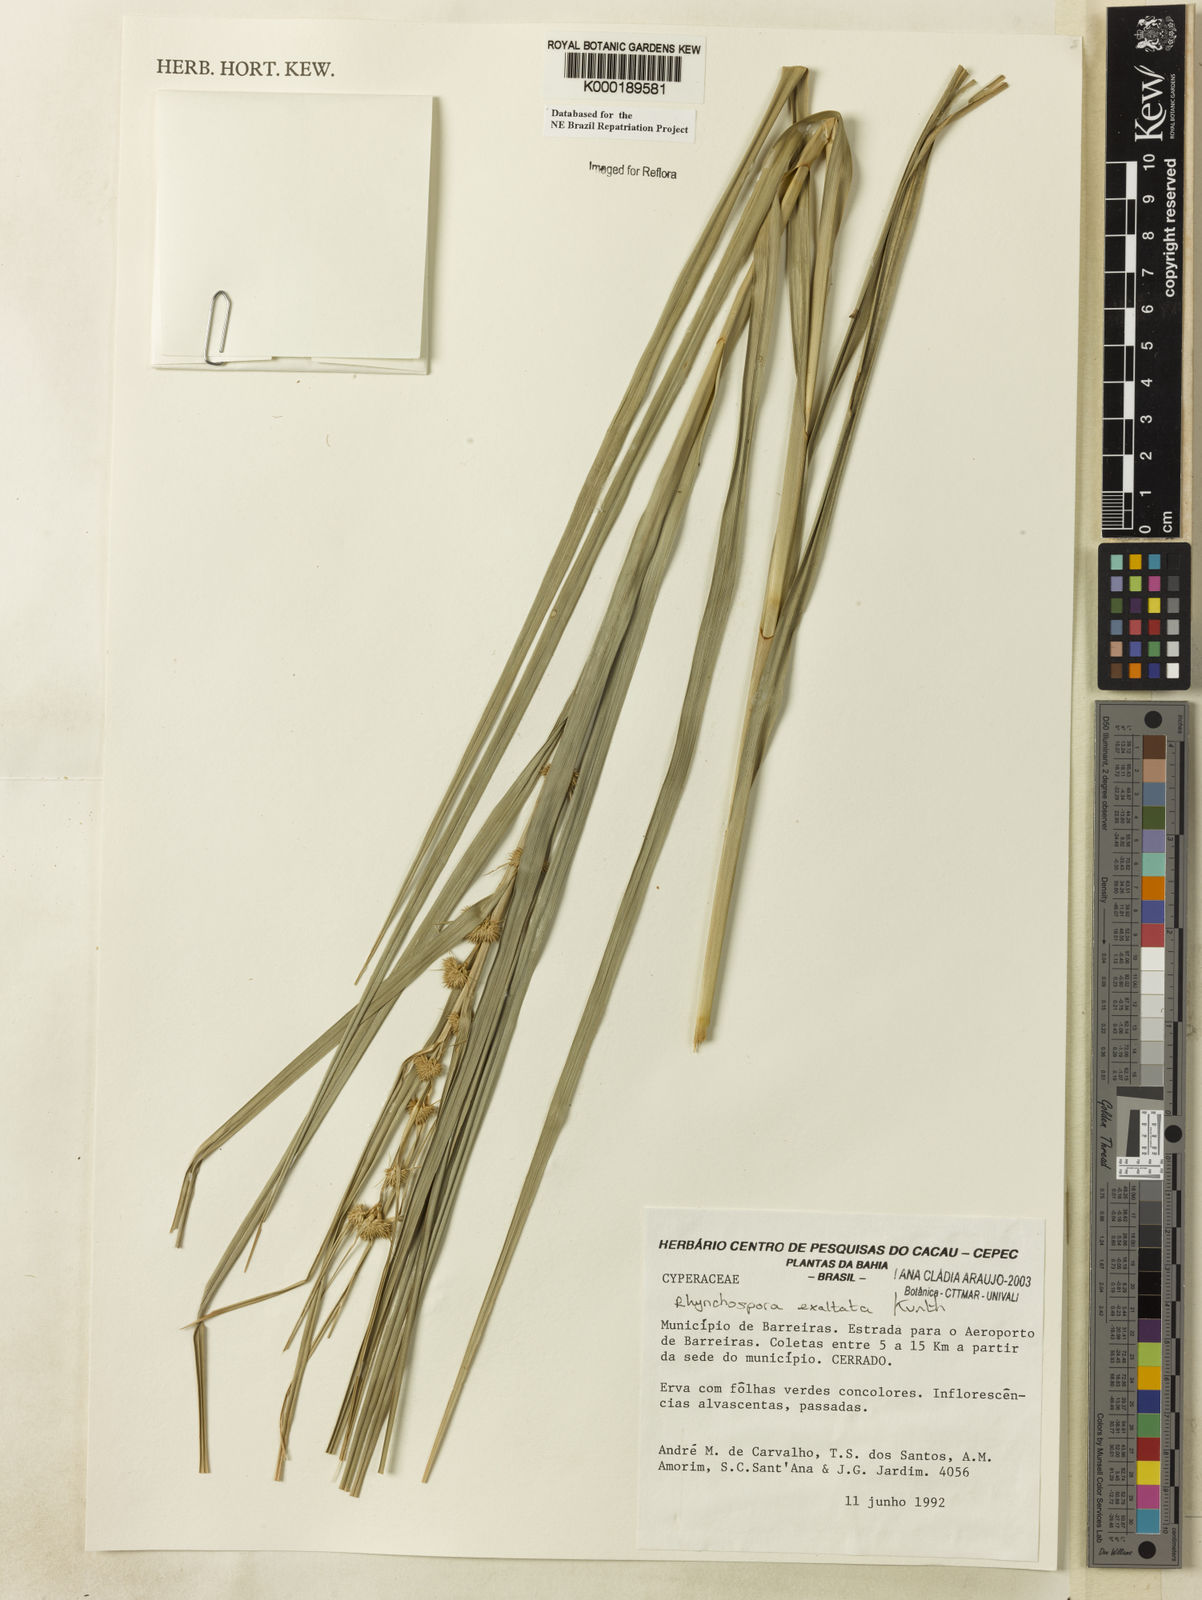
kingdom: Plantae
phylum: Tracheophyta
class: Liliopsida
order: Poales
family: Cyperaceae
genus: Rhynchospora
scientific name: Rhynchospora exaltata
